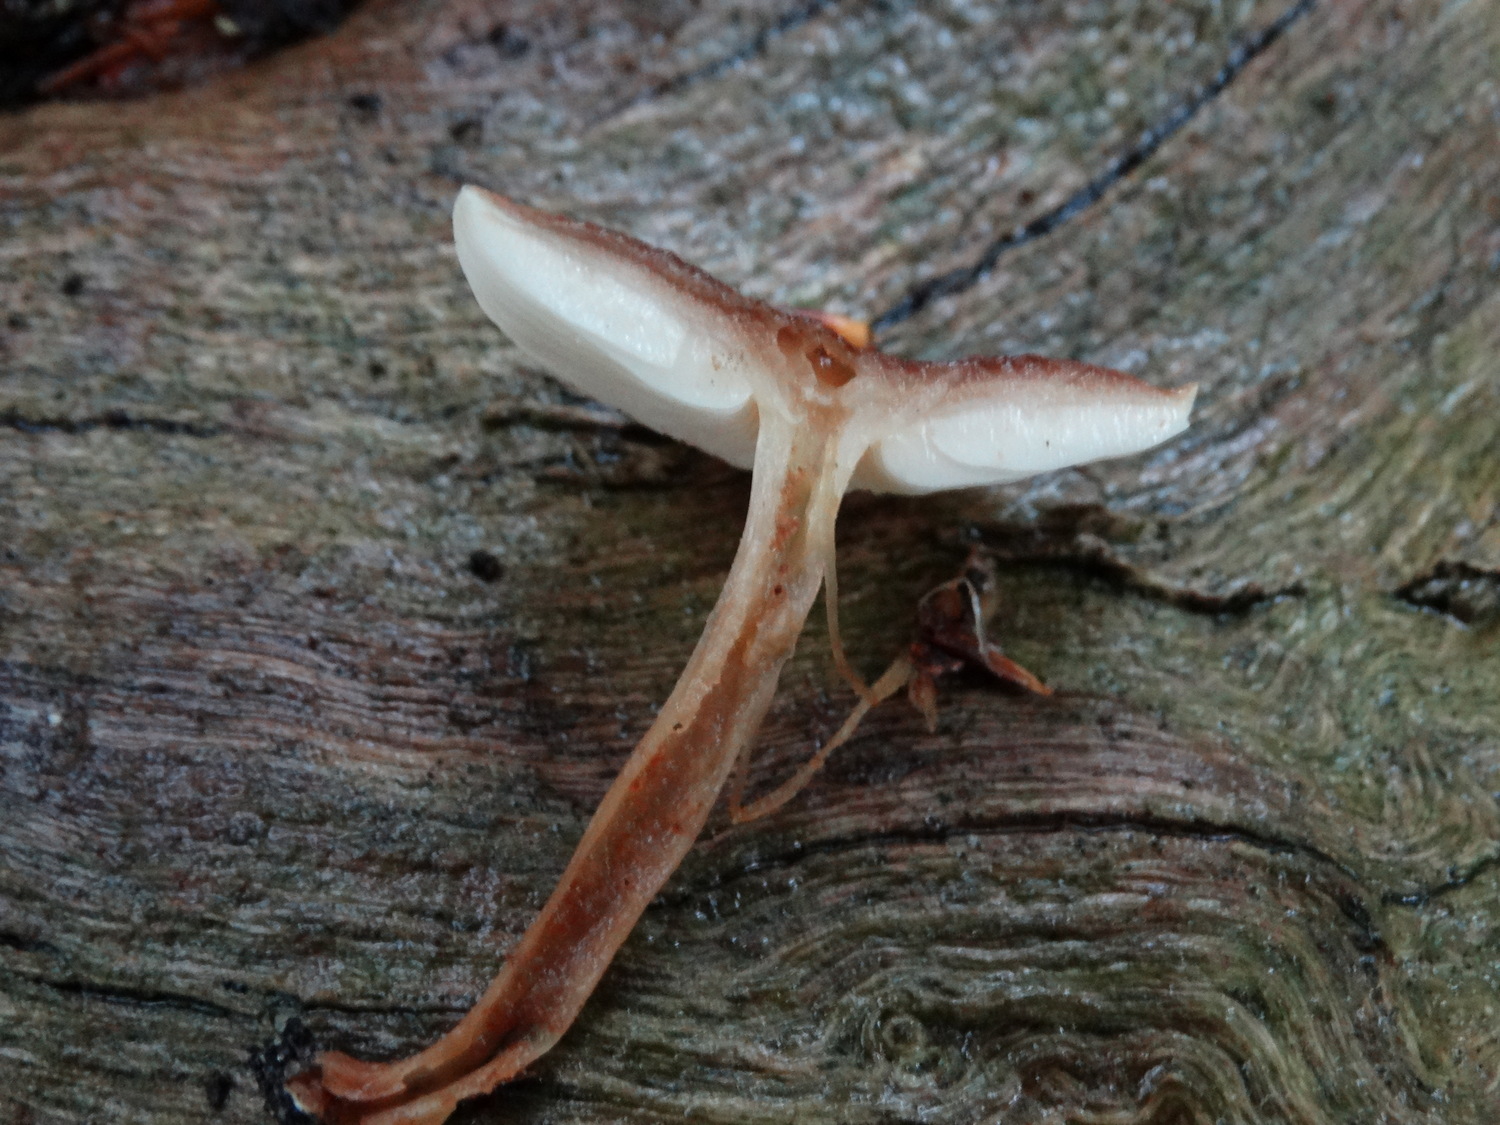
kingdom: Fungi
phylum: Basidiomycota
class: Agaricomycetes
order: Agaricales
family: Omphalotaceae
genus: Gymnopus
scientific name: Gymnopus
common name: fladhat
